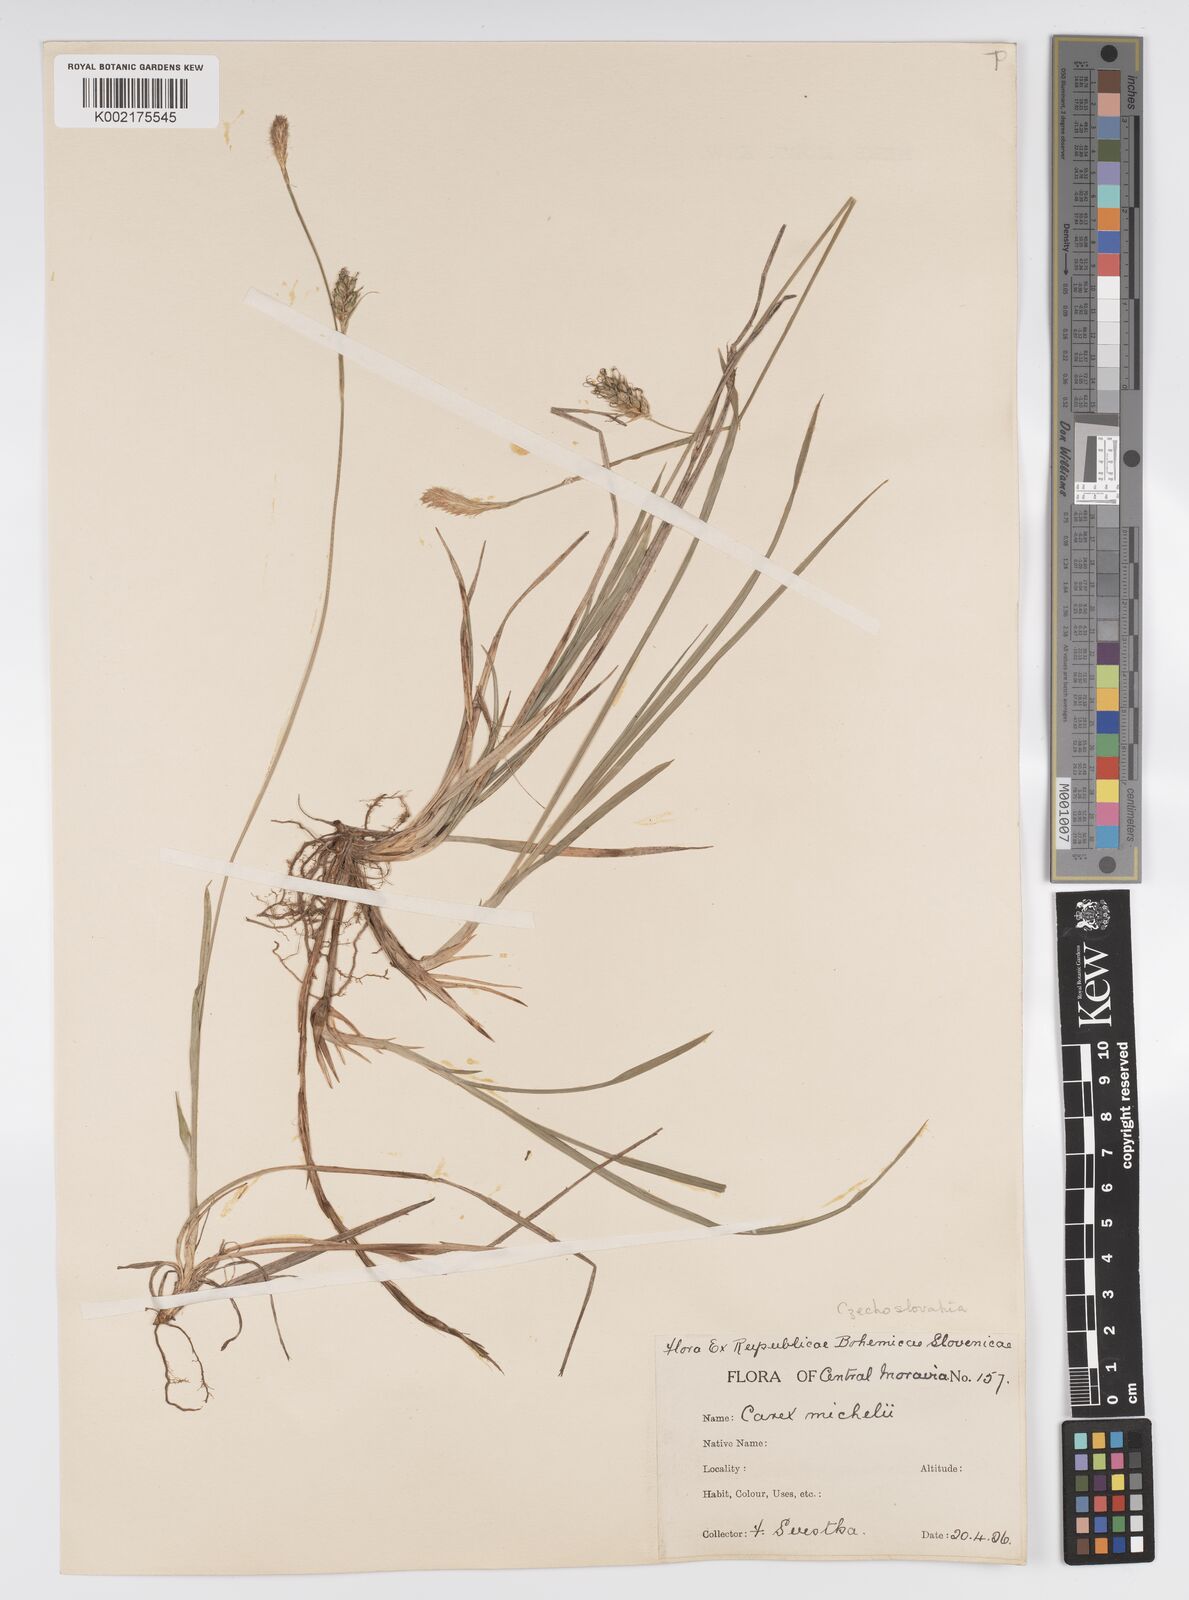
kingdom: Plantae
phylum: Tracheophyta
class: Liliopsida
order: Poales
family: Cyperaceae
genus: Carex
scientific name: Carex michelii
